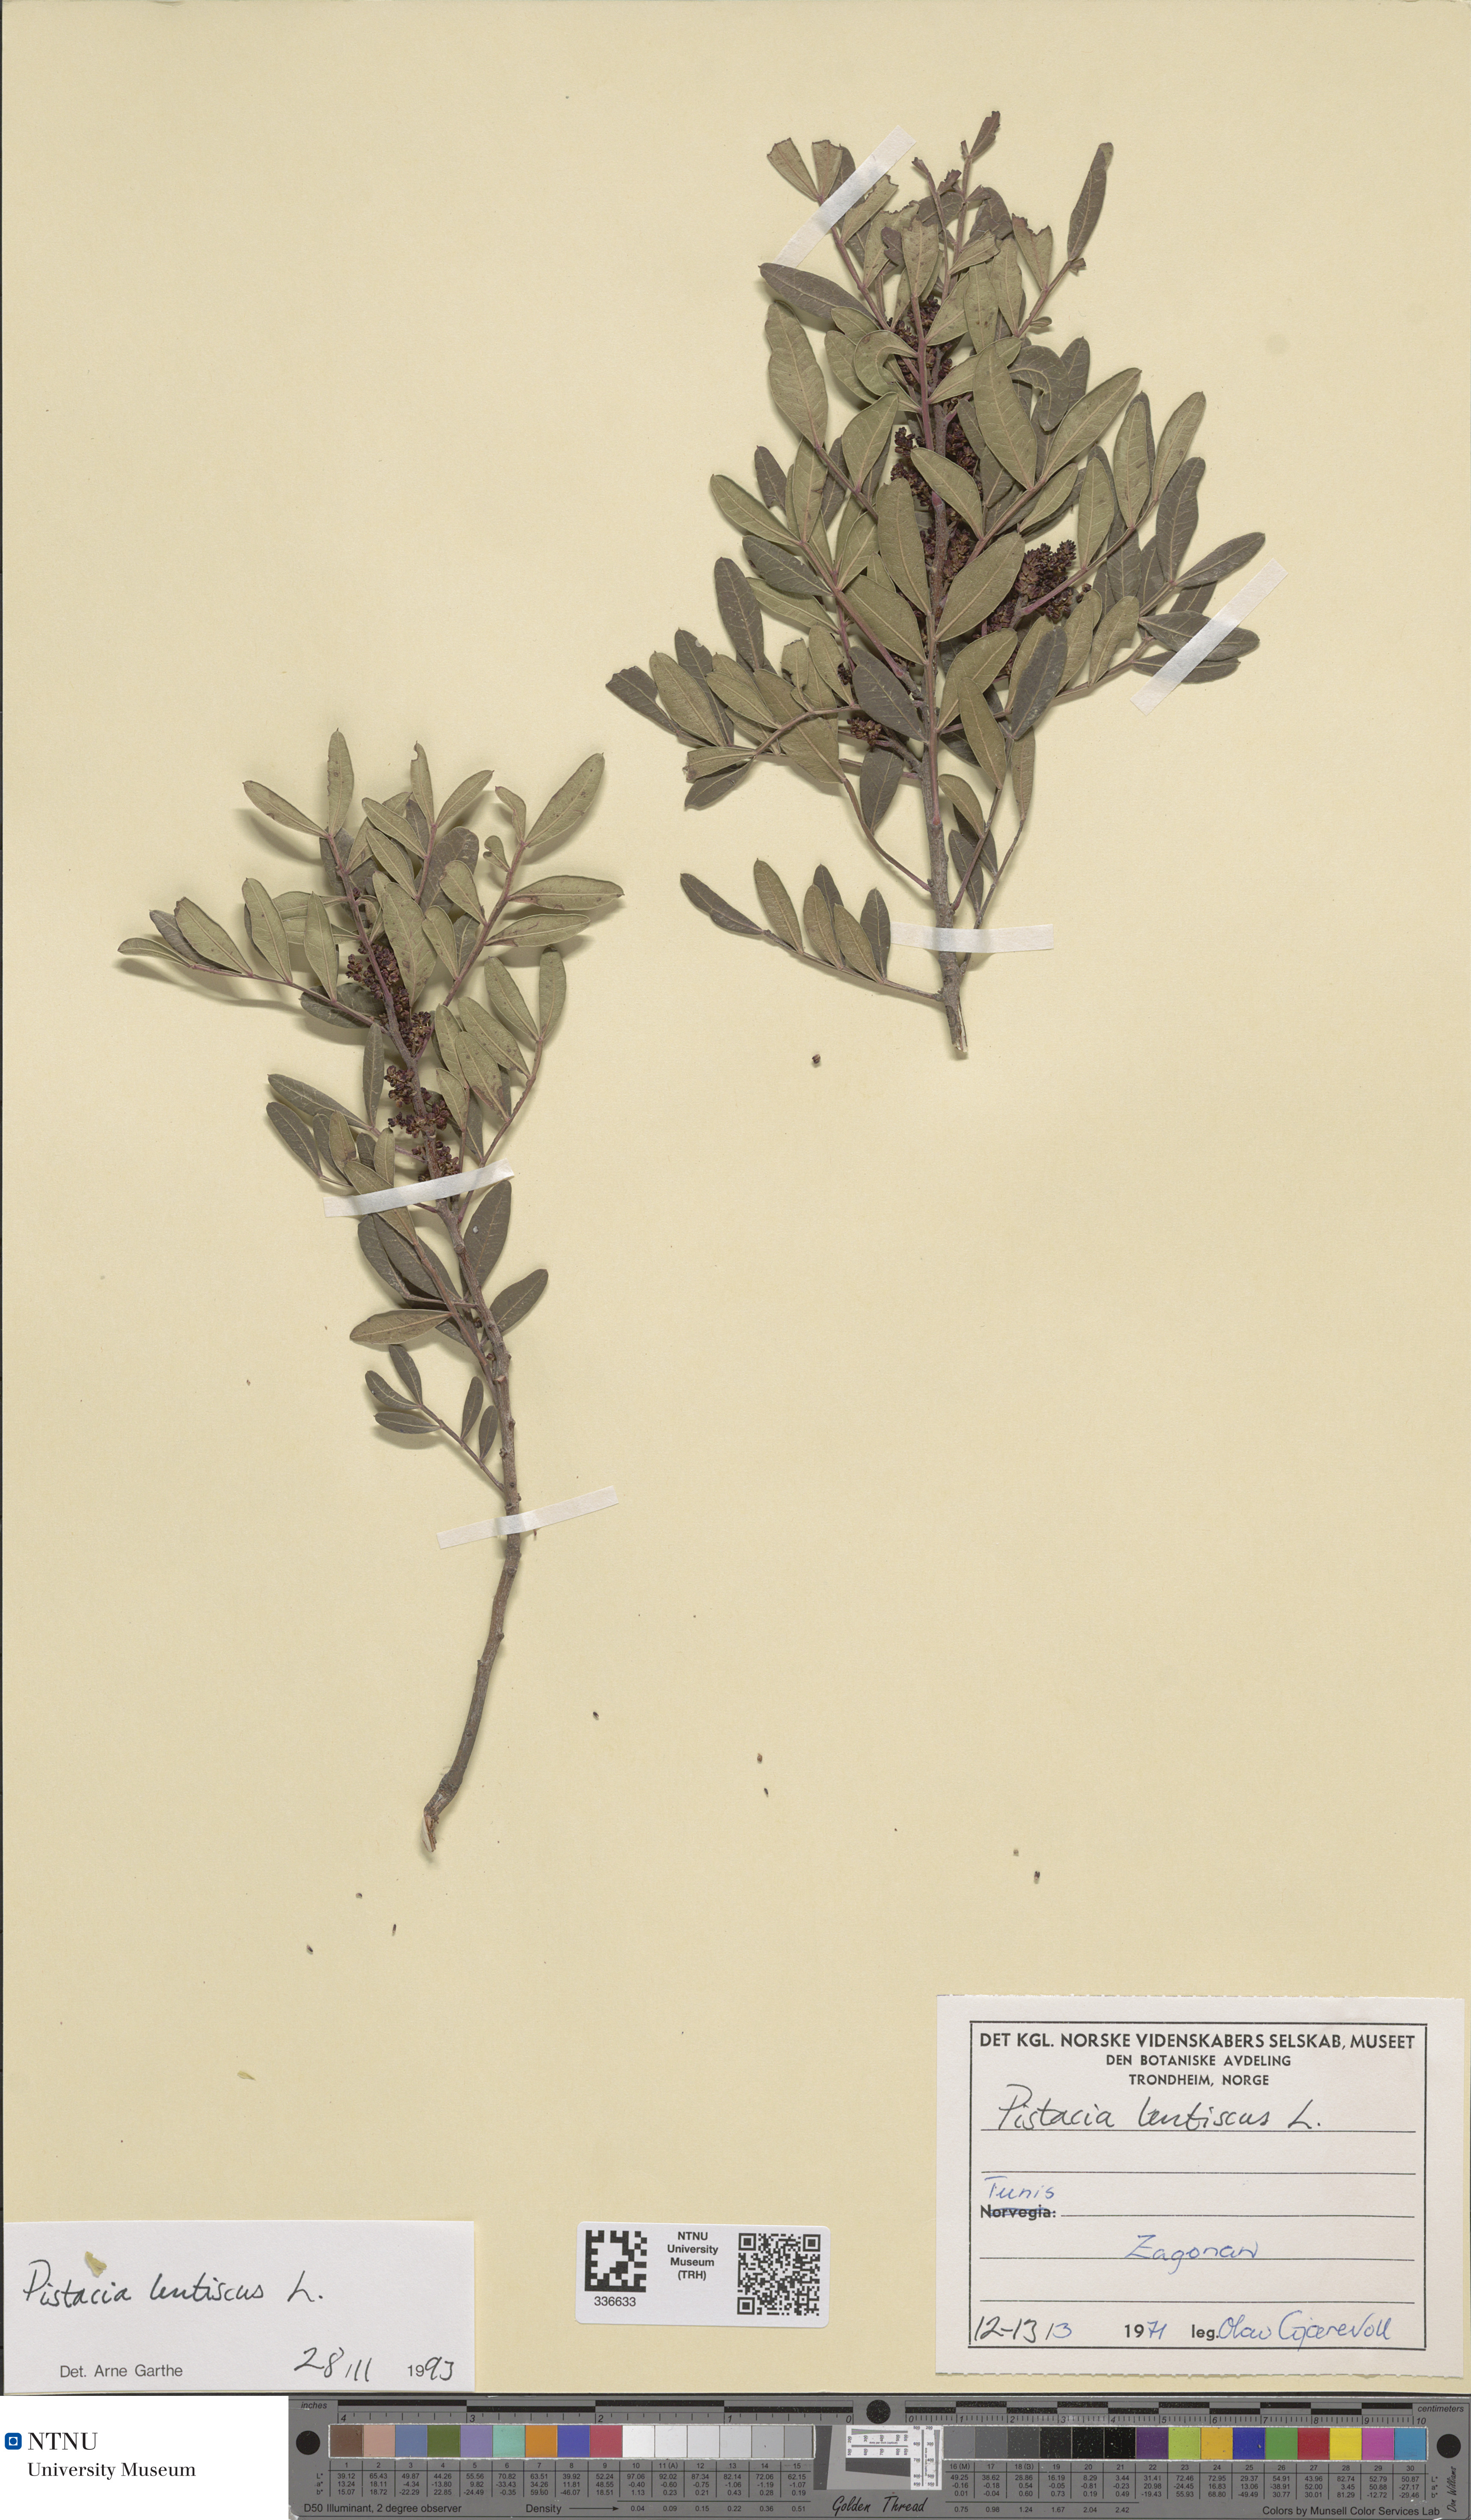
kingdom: Plantae
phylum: Tracheophyta
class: Magnoliopsida
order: Sapindales
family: Anacardiaceae
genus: Pistacia
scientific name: Pistacia lentiscus
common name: Lentisk
